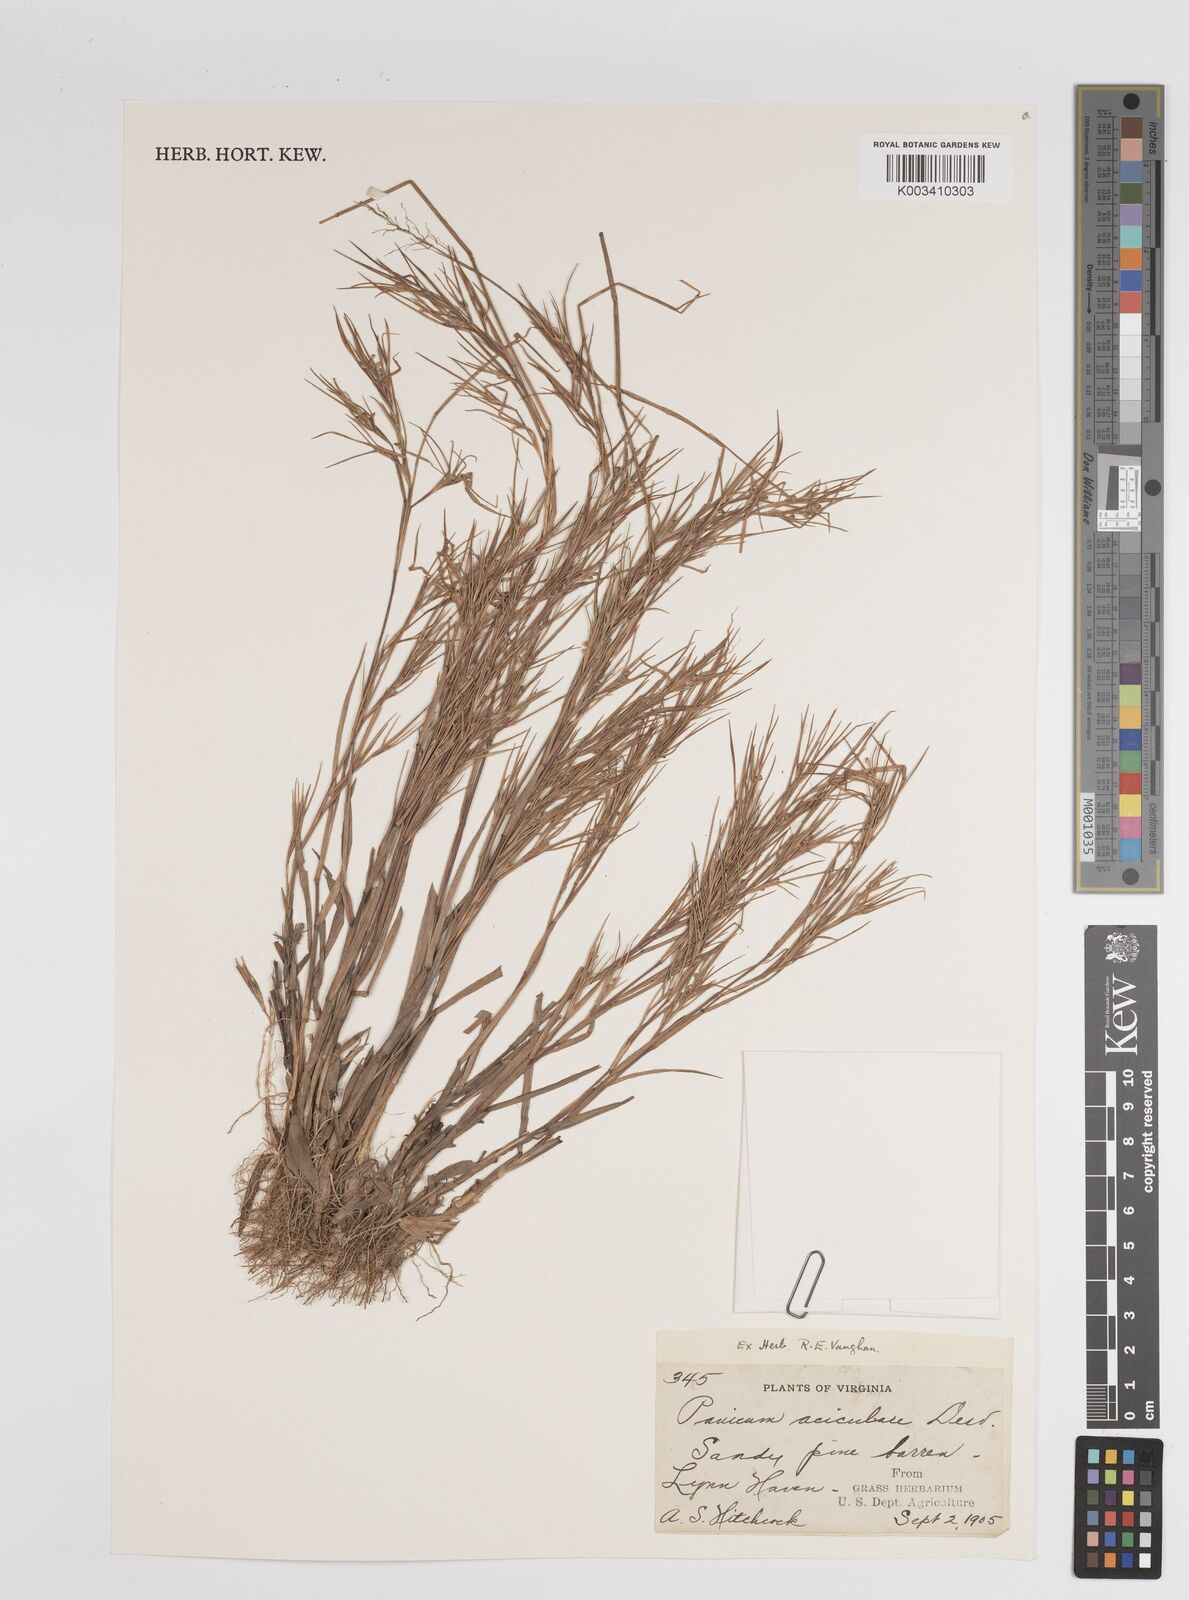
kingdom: Plantae
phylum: Tracheophyta
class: Liliopsida
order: Poales
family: Poaceae
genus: Dichanthelium
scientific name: Dichanthelium aciculare
